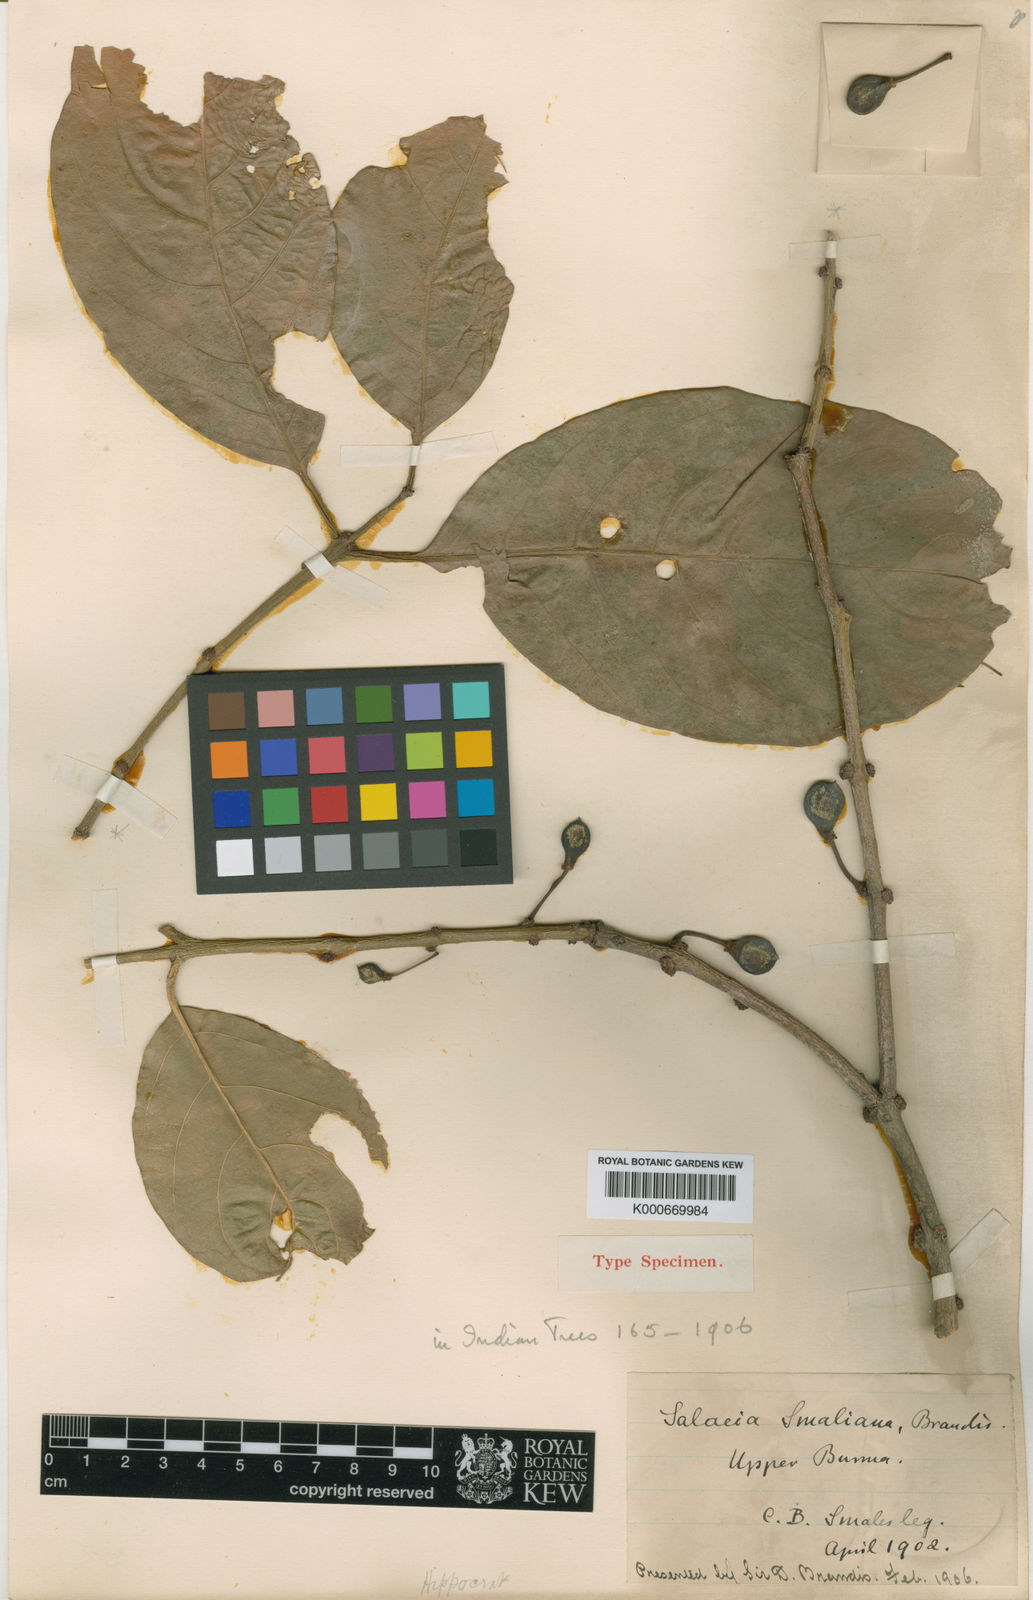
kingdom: Plantae
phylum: Tracheophyta
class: Magnoliopsida
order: Celastrales
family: Celastraceae
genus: Salacia
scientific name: Salacia smaliana
